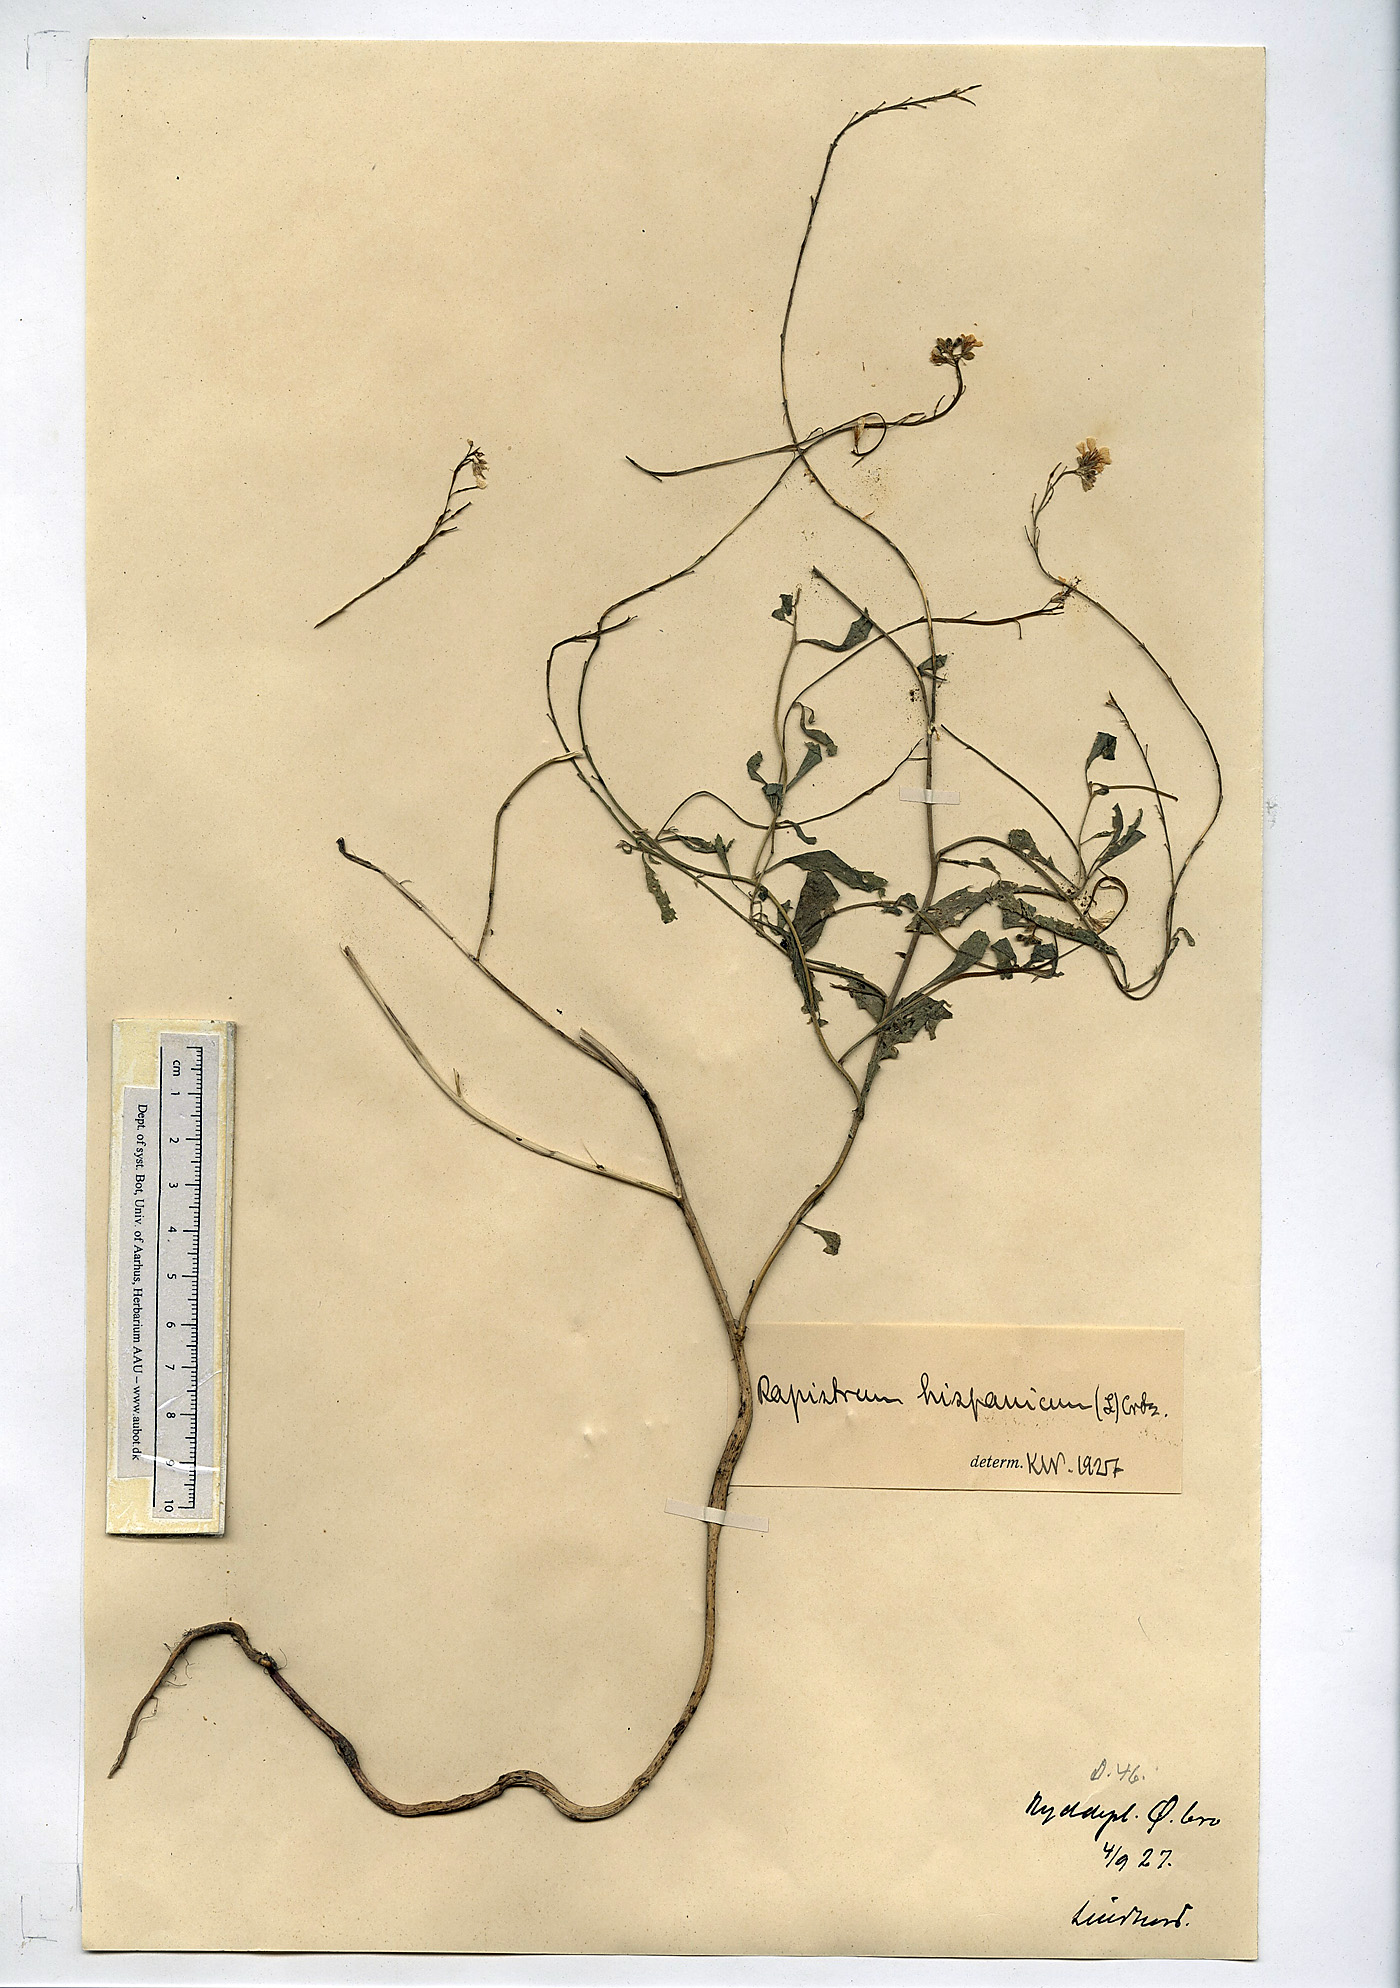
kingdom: Plantae
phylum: Tracheophyta
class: Magnoliopsida
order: Brassicales
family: Brassicaceae
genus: Rapistrum
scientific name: Rapistrum rugosum
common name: Annual bastardcabbage
